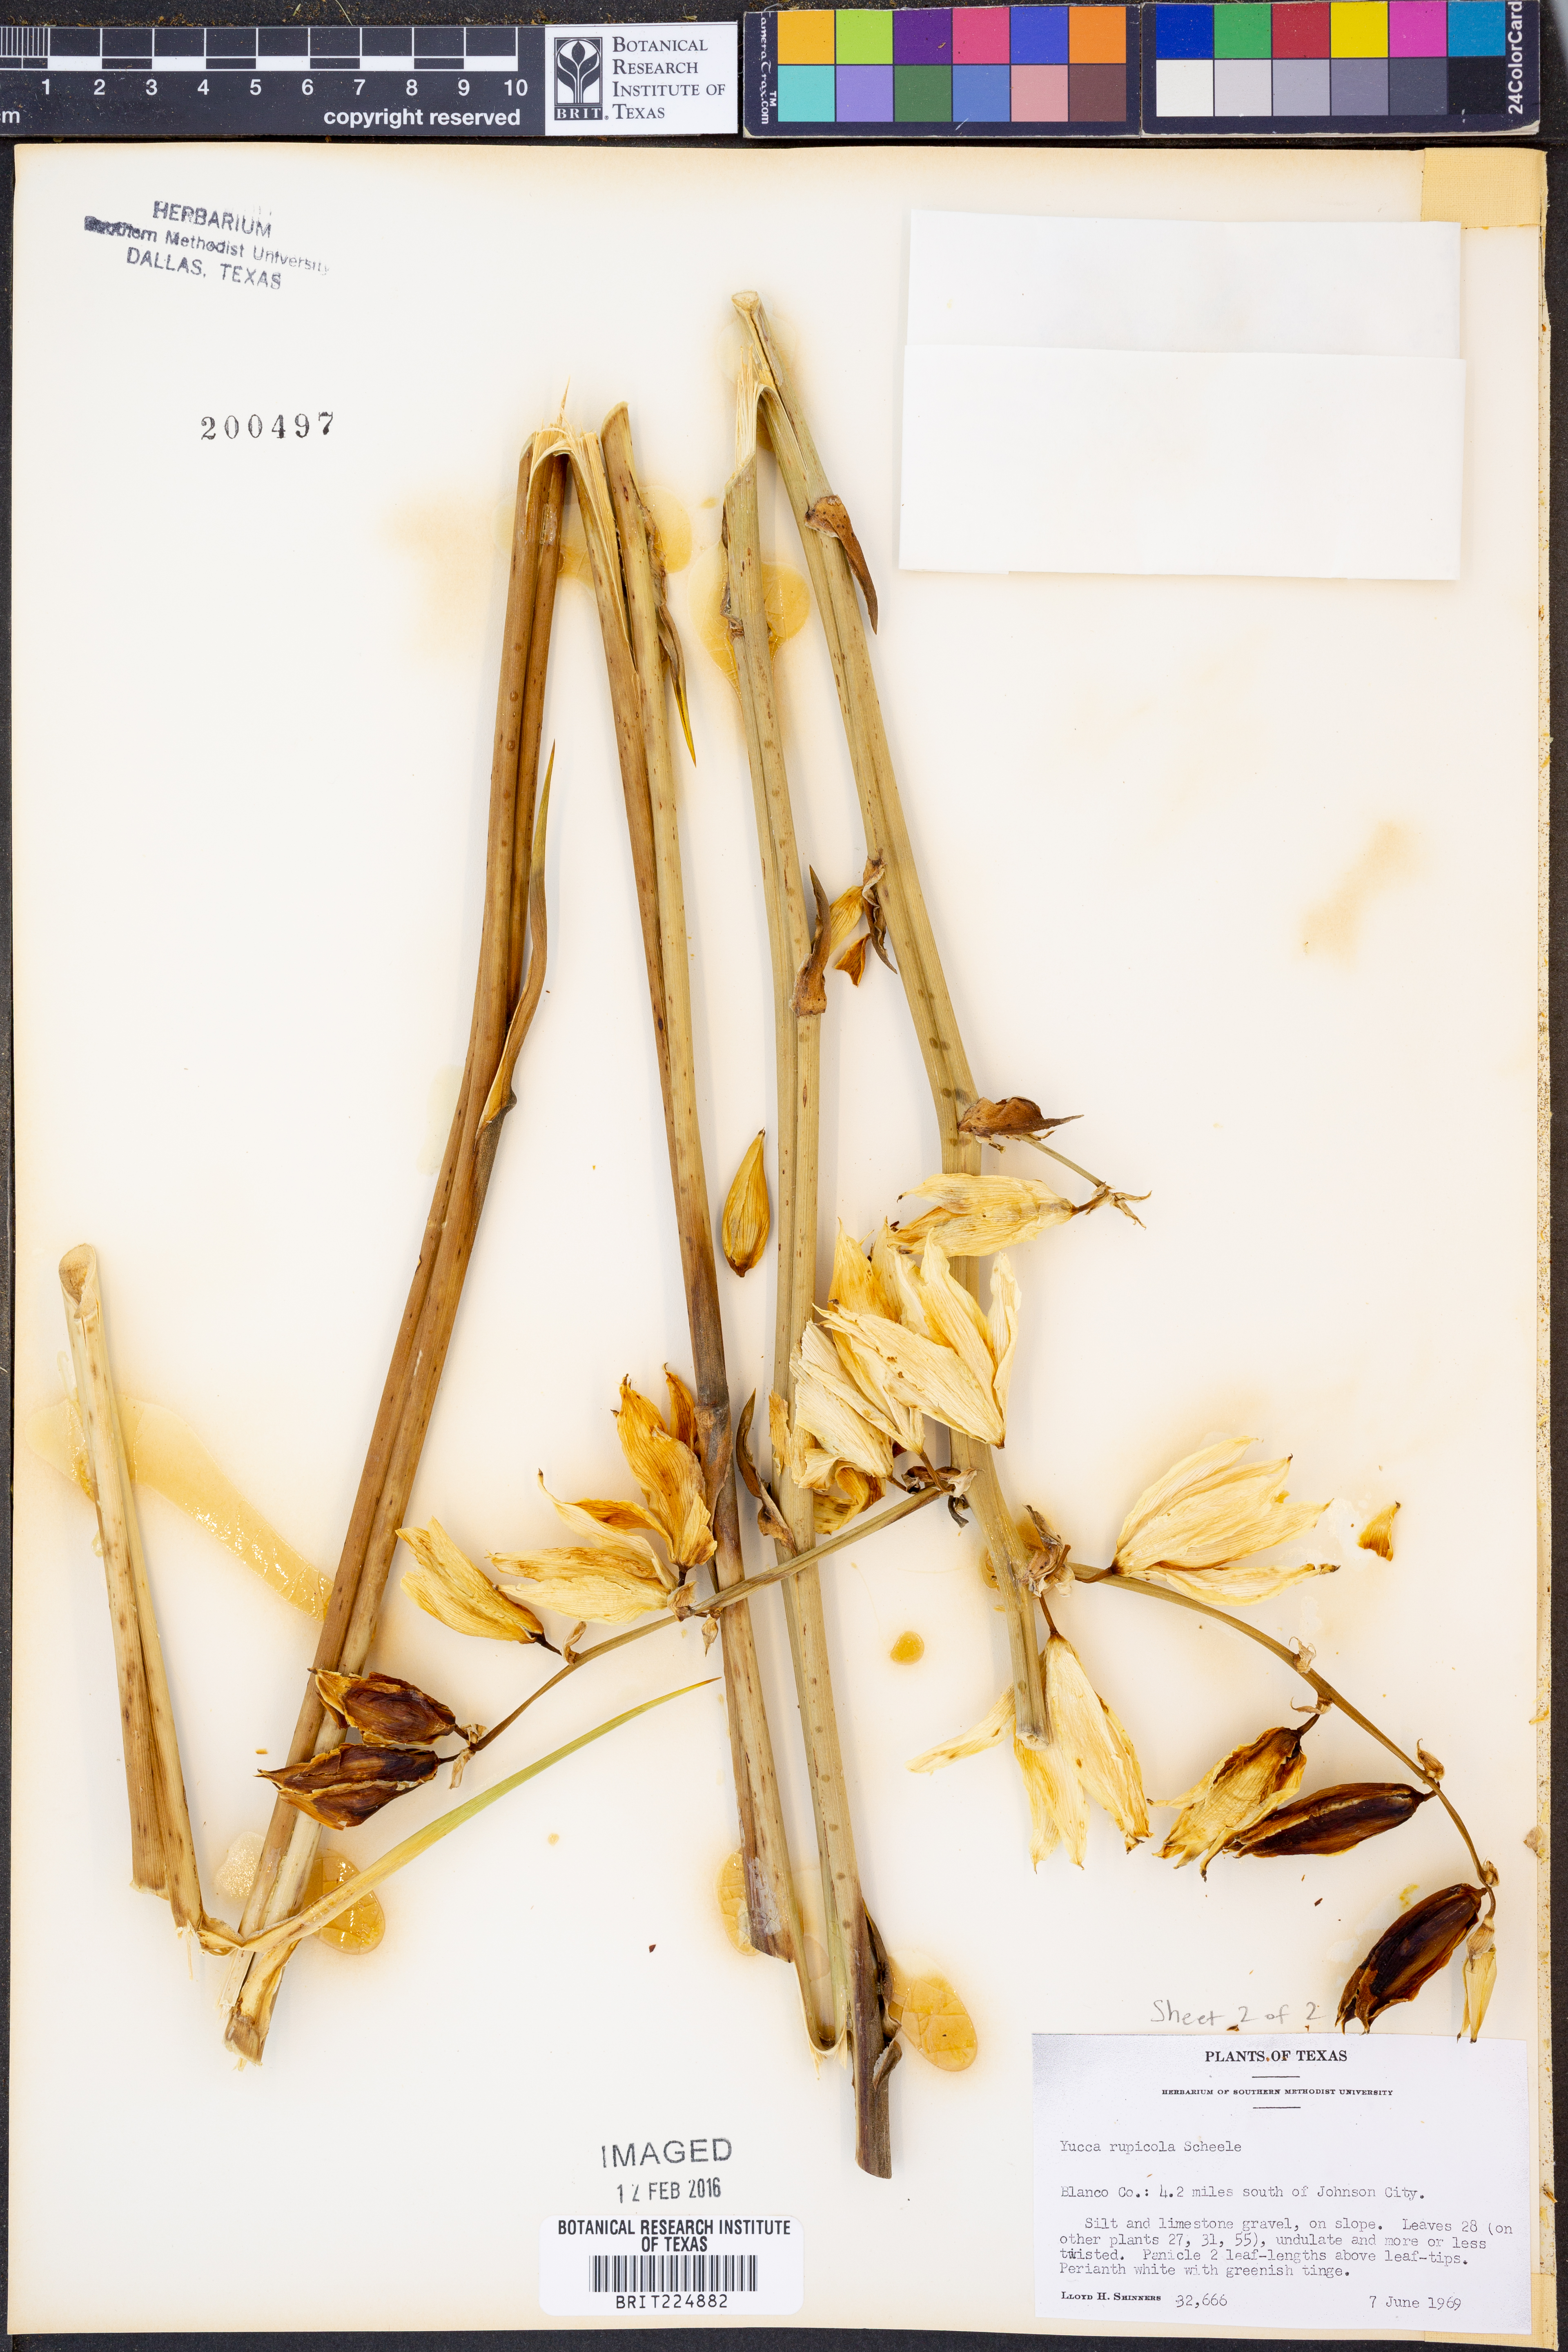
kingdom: Plantae
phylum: Tracheophyta
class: Liliopsida
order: Asparagales
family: Asparagaceae
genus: Yucca
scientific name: Yucca rupicola
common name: Twisted-leaf spanish-dagger
